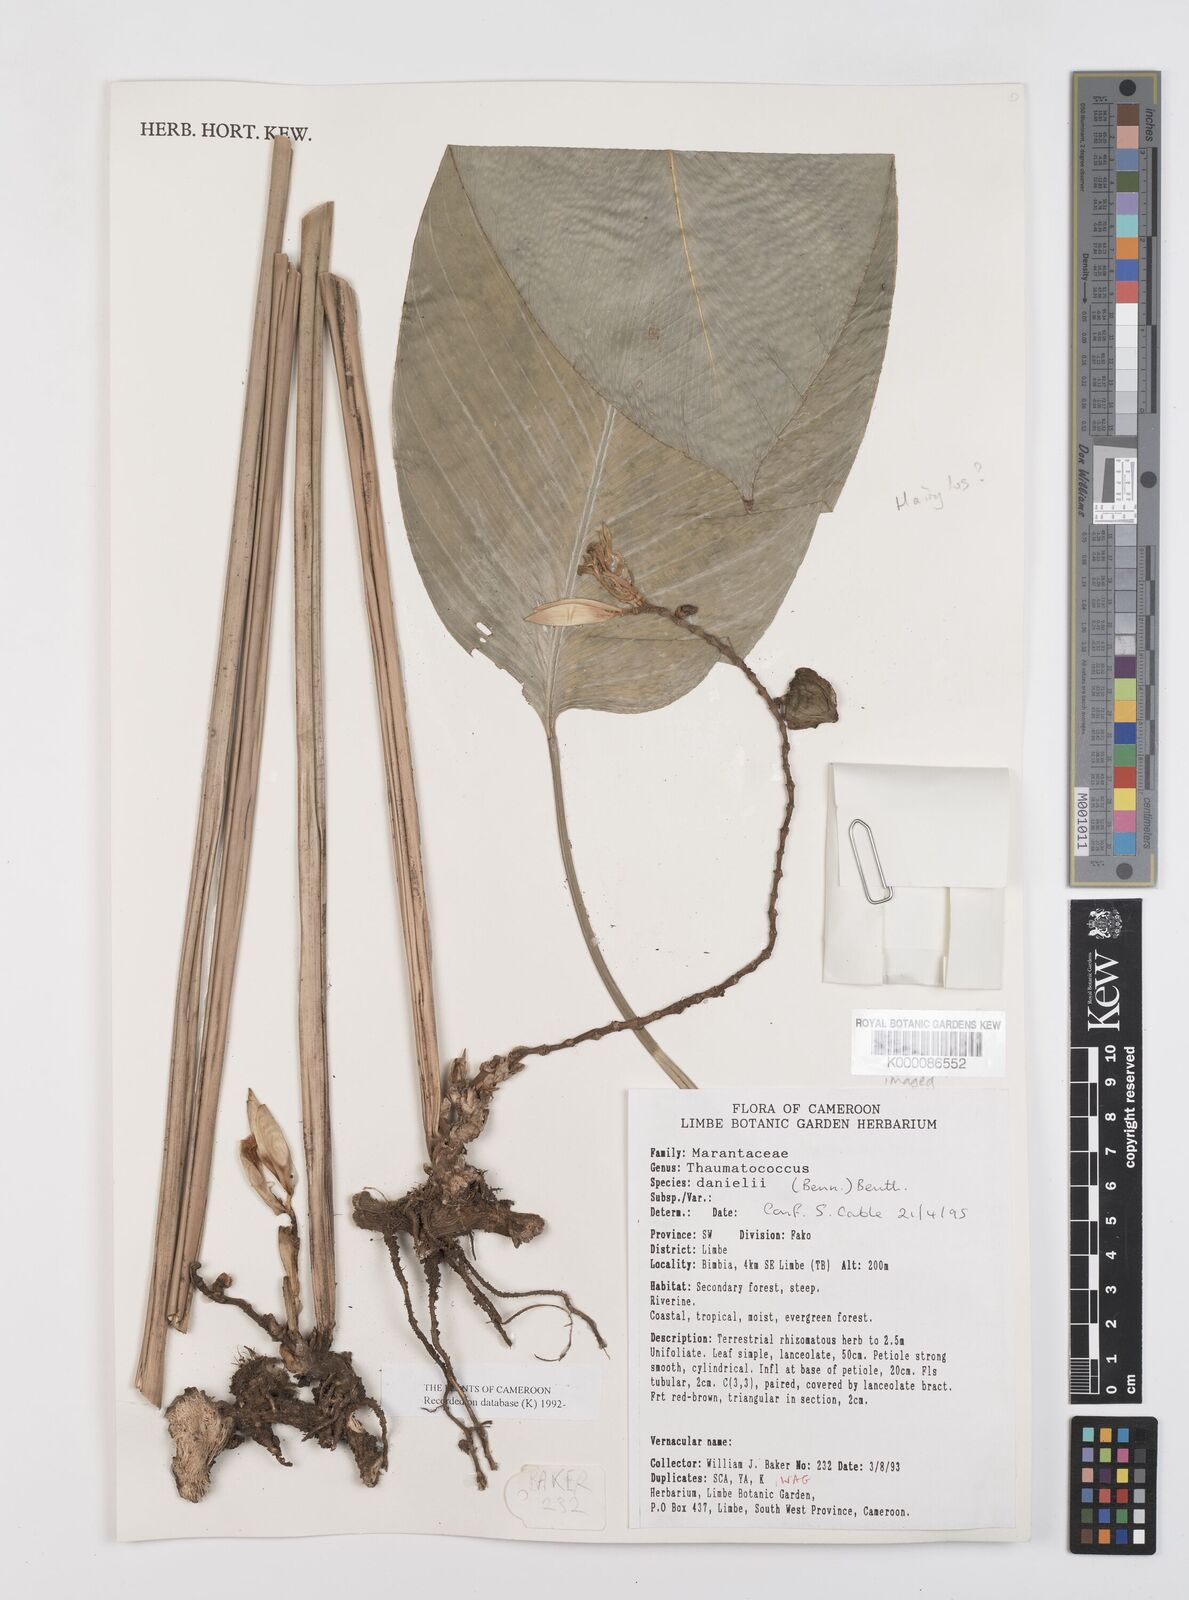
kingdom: Plantae
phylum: Tracheophyta
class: Liliopsida
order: Zingiberales
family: Marantaceae
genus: Thaumatococcus
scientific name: Thaumatococcus
